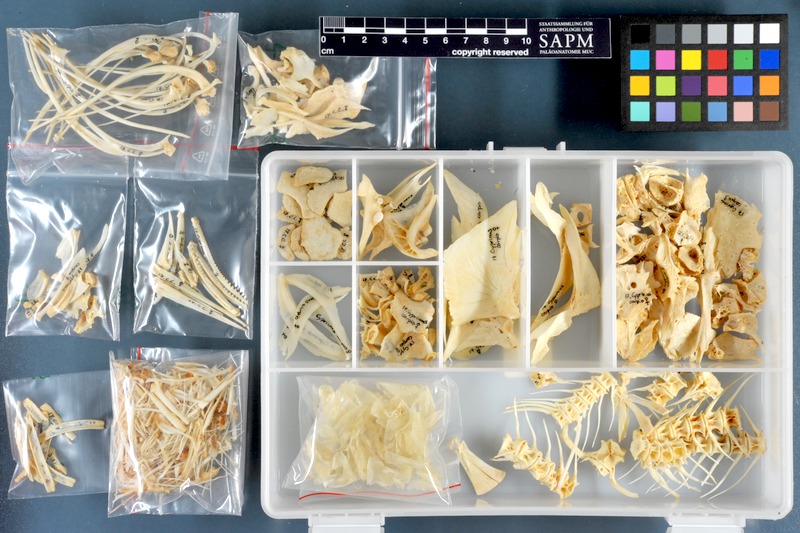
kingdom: Animalia
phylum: Chordata
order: Cypriniformes
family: Cyprinidae
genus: Cyprinus
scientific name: Cyprinus carpio
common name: Common carp
